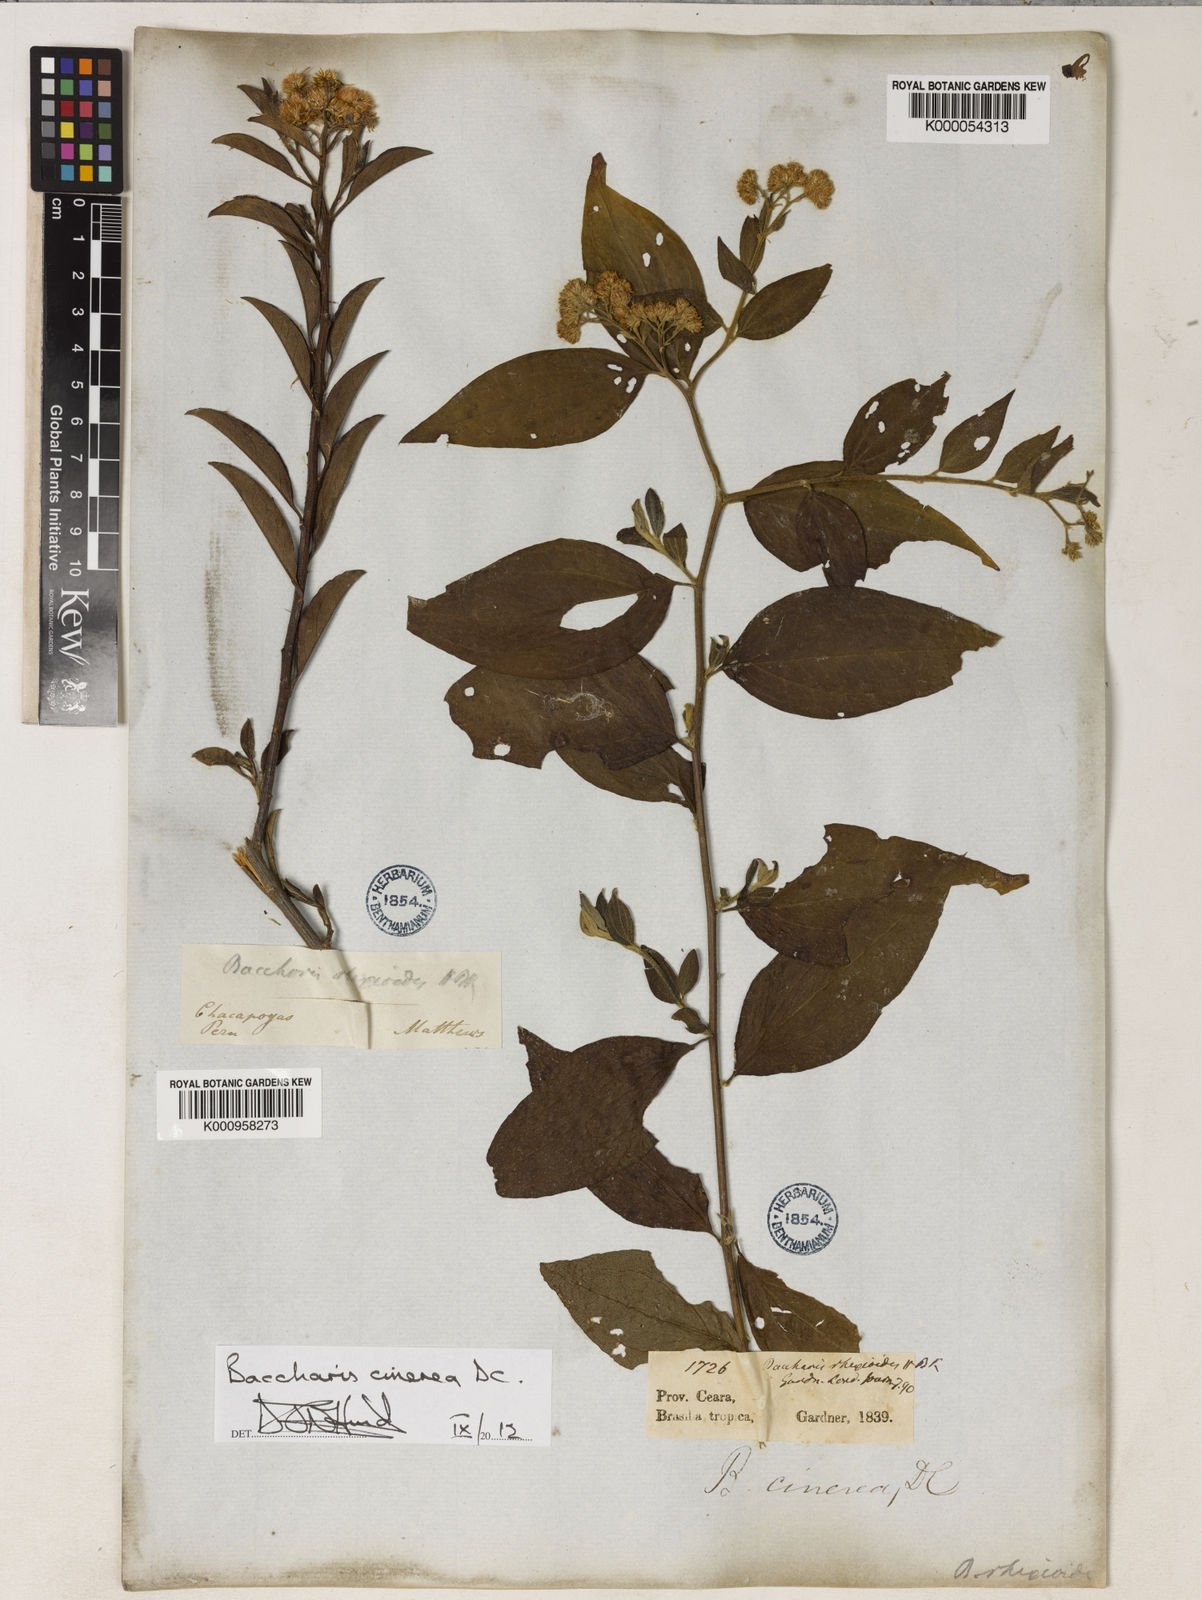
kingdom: Plantae
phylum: Tracheophyta
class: Magnoliopsida
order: Asterales
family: Asteraceae
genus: Baccharis
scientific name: Baccharis trinervis
